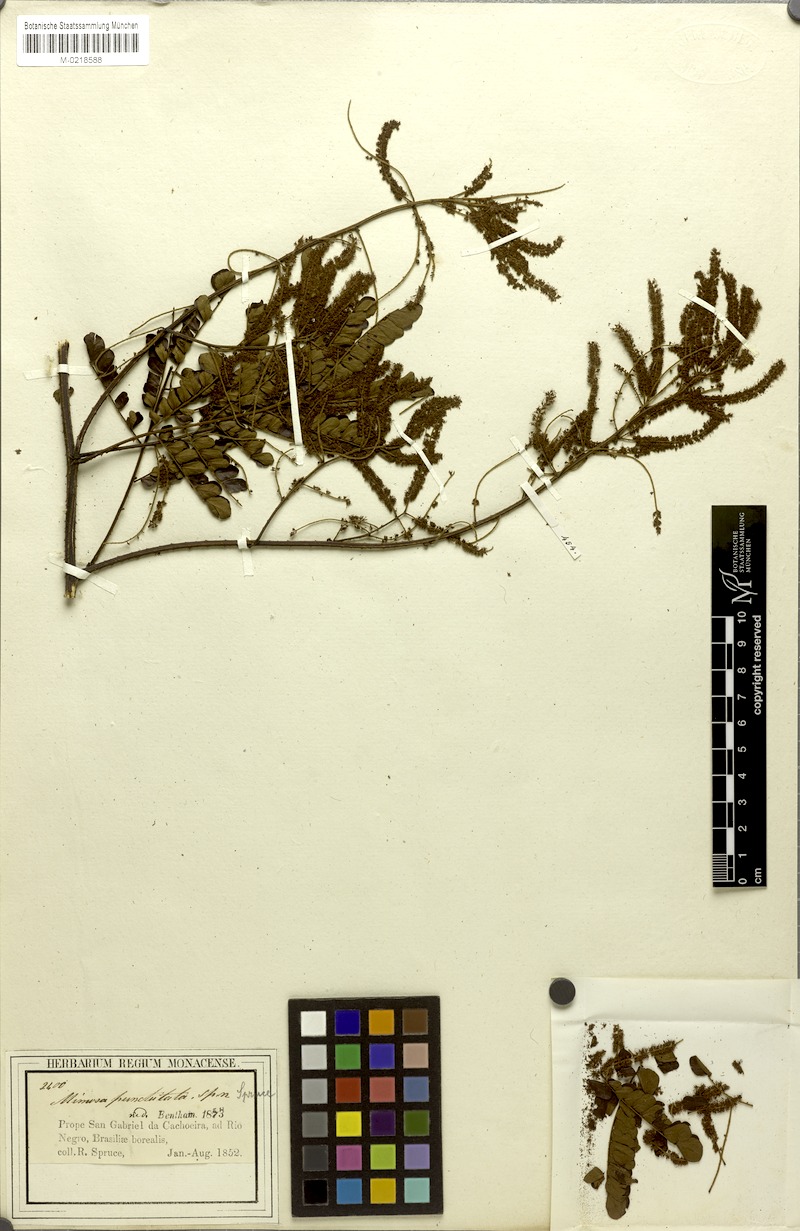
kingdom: Plantae
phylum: Tracheophyta
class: Magnoliopsida
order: Fabales
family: Fabaceae
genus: Mimosa
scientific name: Mimosa myriadenia
